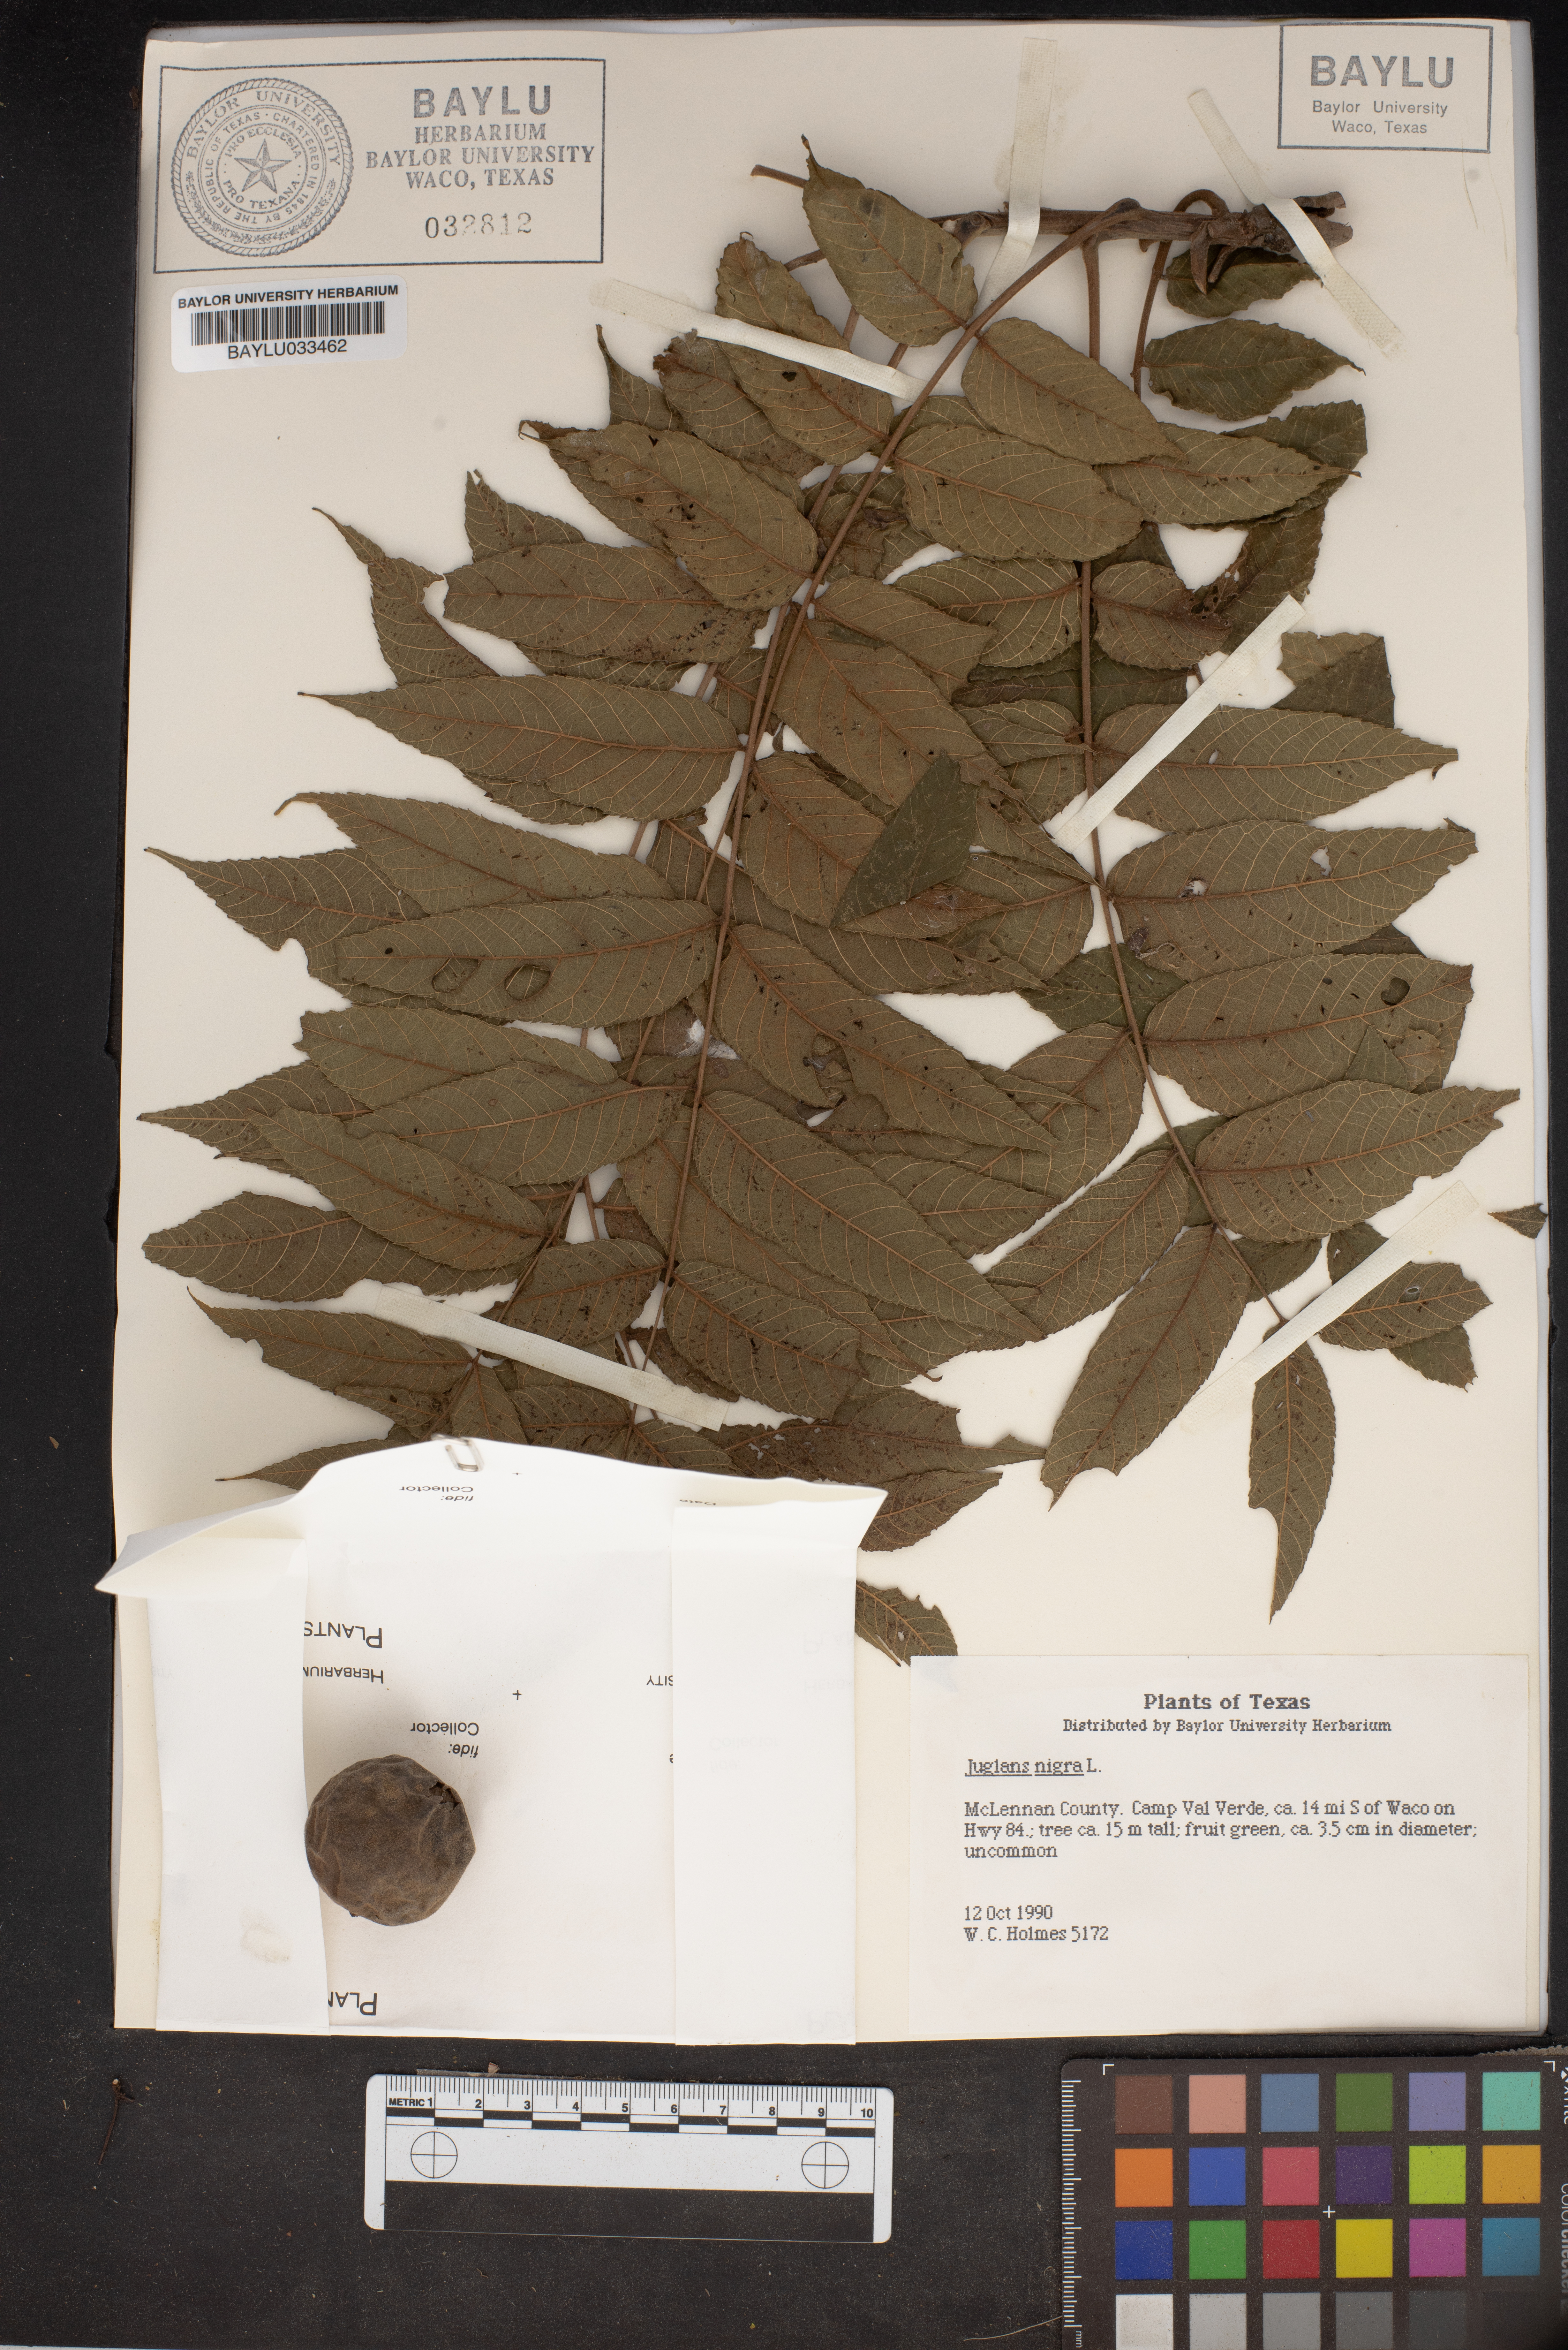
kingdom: Plantae
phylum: Tracheophyta
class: Magnoliopsida
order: Fagales
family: Juglandaceae
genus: Juglans
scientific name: Juglans nigra
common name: Black walnut
